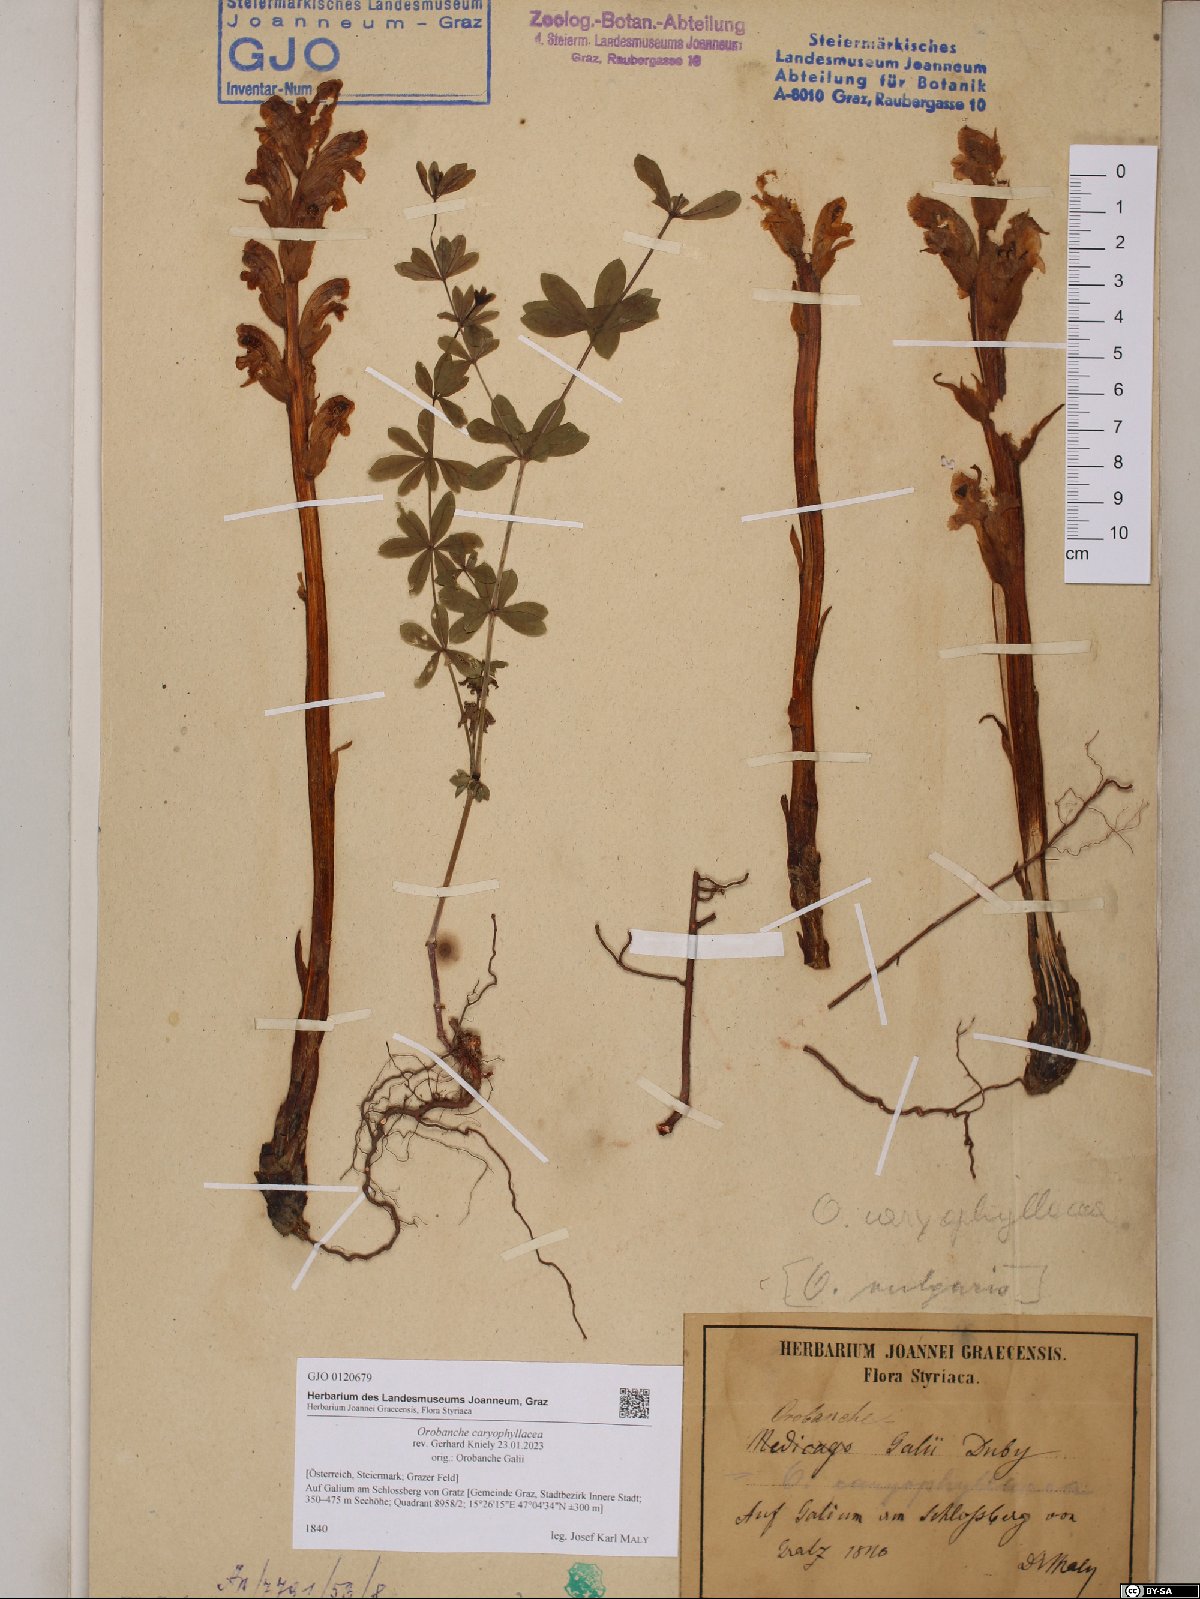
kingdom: Plantae
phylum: Tracheophyta
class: Magnoliopsida
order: Lamiales
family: Orobanchaceae
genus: Orobanche
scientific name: Orobanche caryophyllacea
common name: Bedstraw broomrape
